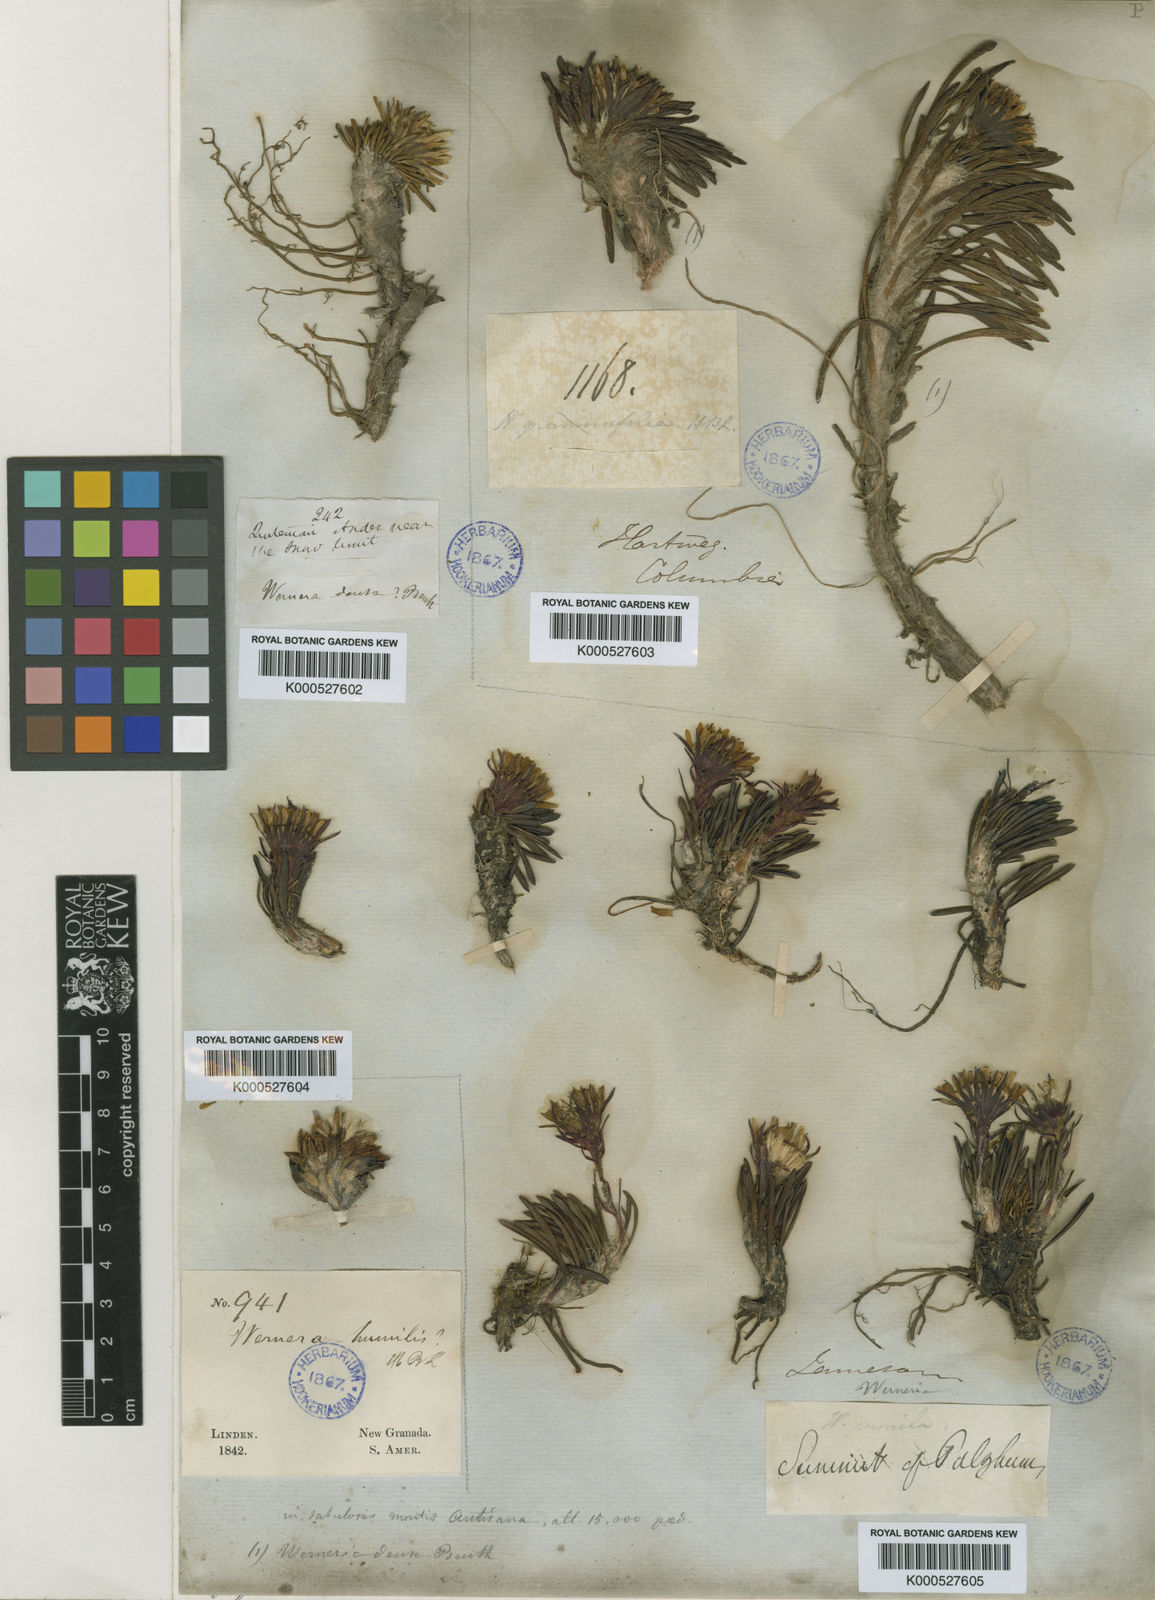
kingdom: Plantae
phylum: Tracheophyta
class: Magnoliopsida
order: Asterales
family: Asteraceae
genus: Rockhausenia
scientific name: Rockhausenia pumila
